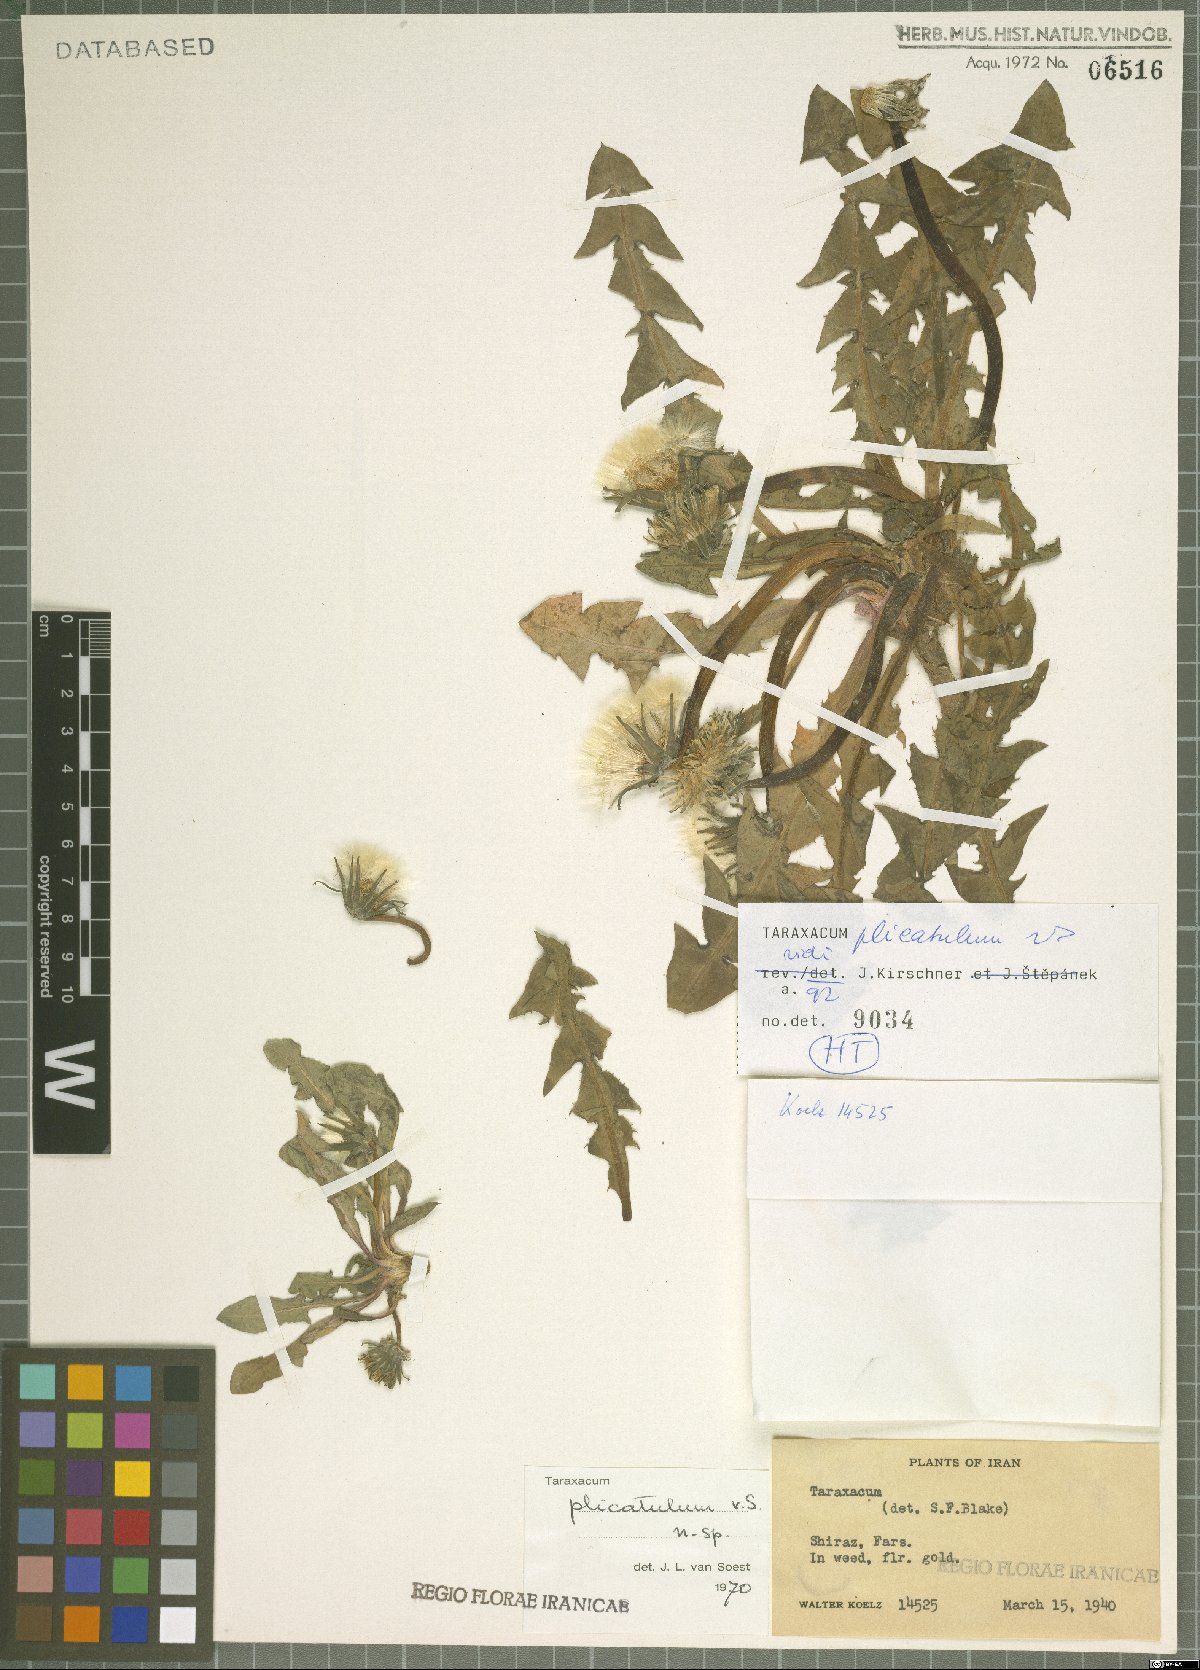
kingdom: Plantae
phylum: Tracheophyta
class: Magnoliopsida
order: Asterales
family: Asteraceae
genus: Taraxacum
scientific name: Taraxacum plicatulum
